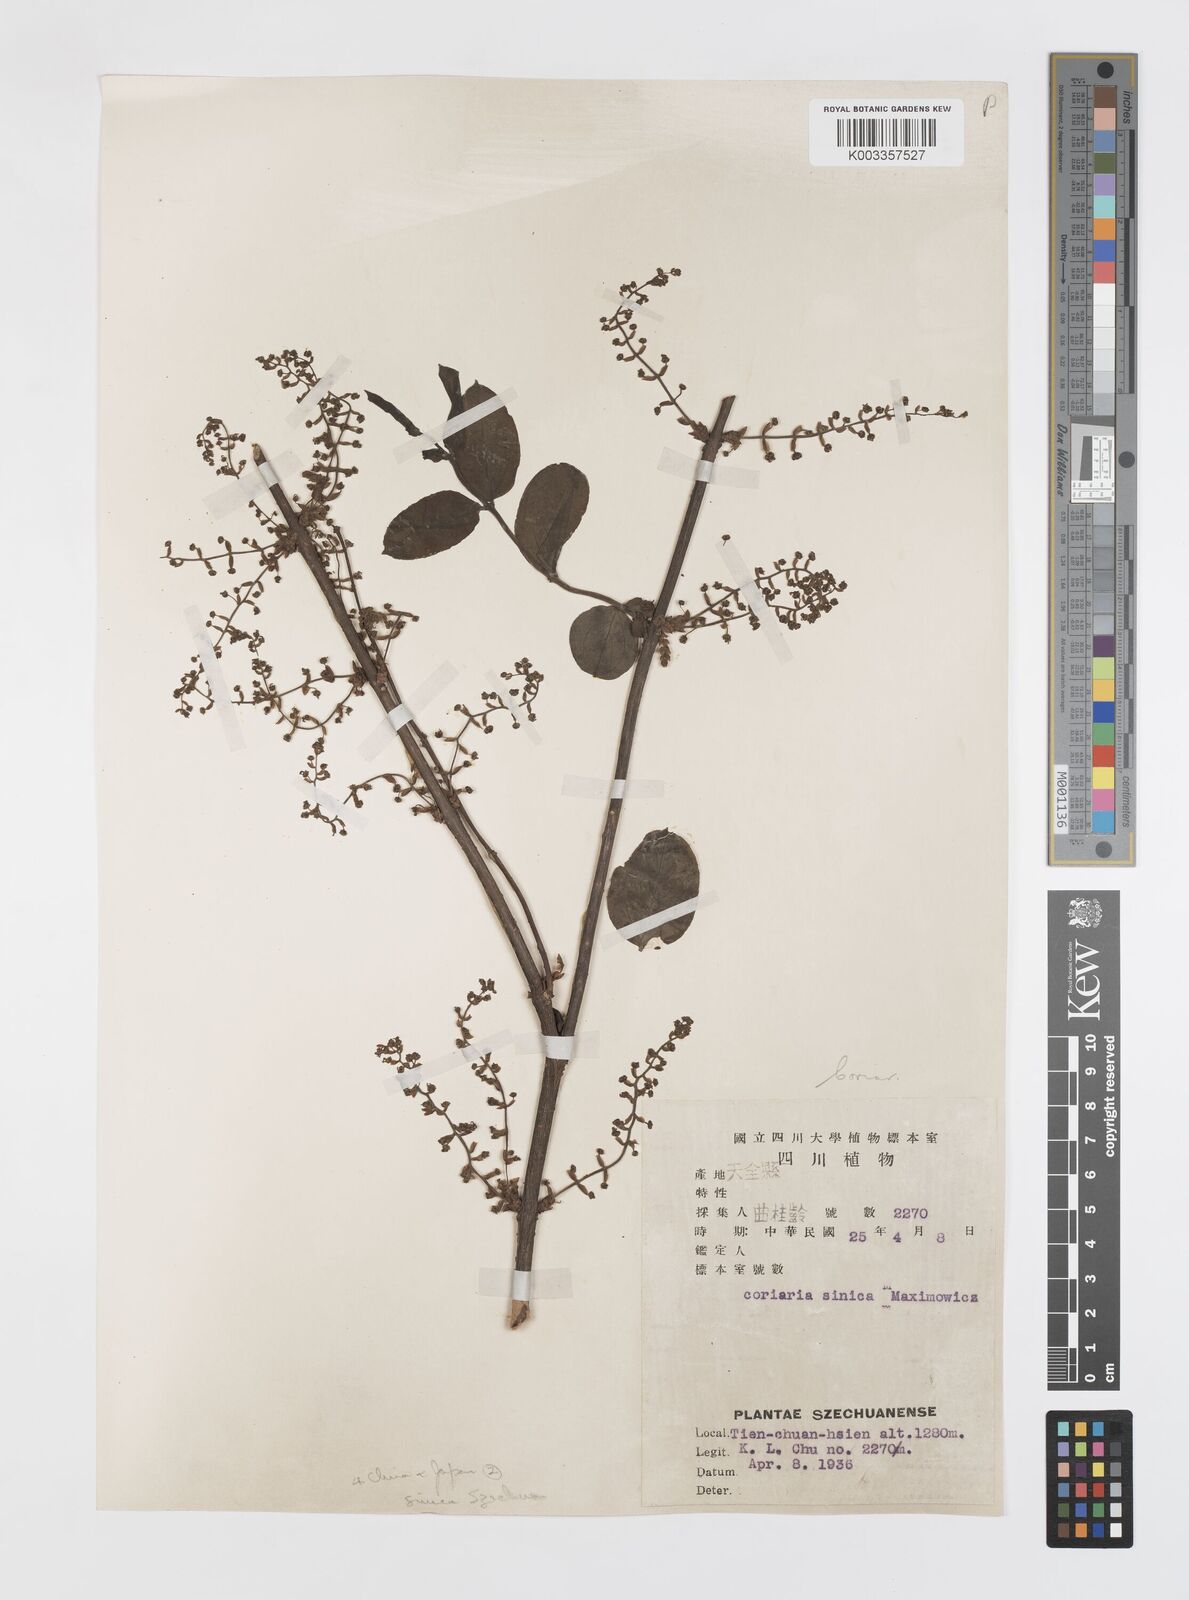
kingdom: Plantae
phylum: Tracheophyta
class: Magnoliopsida
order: Cucurbitales
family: Coriariaceae
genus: Coriaria
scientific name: Coriaria napalensis
